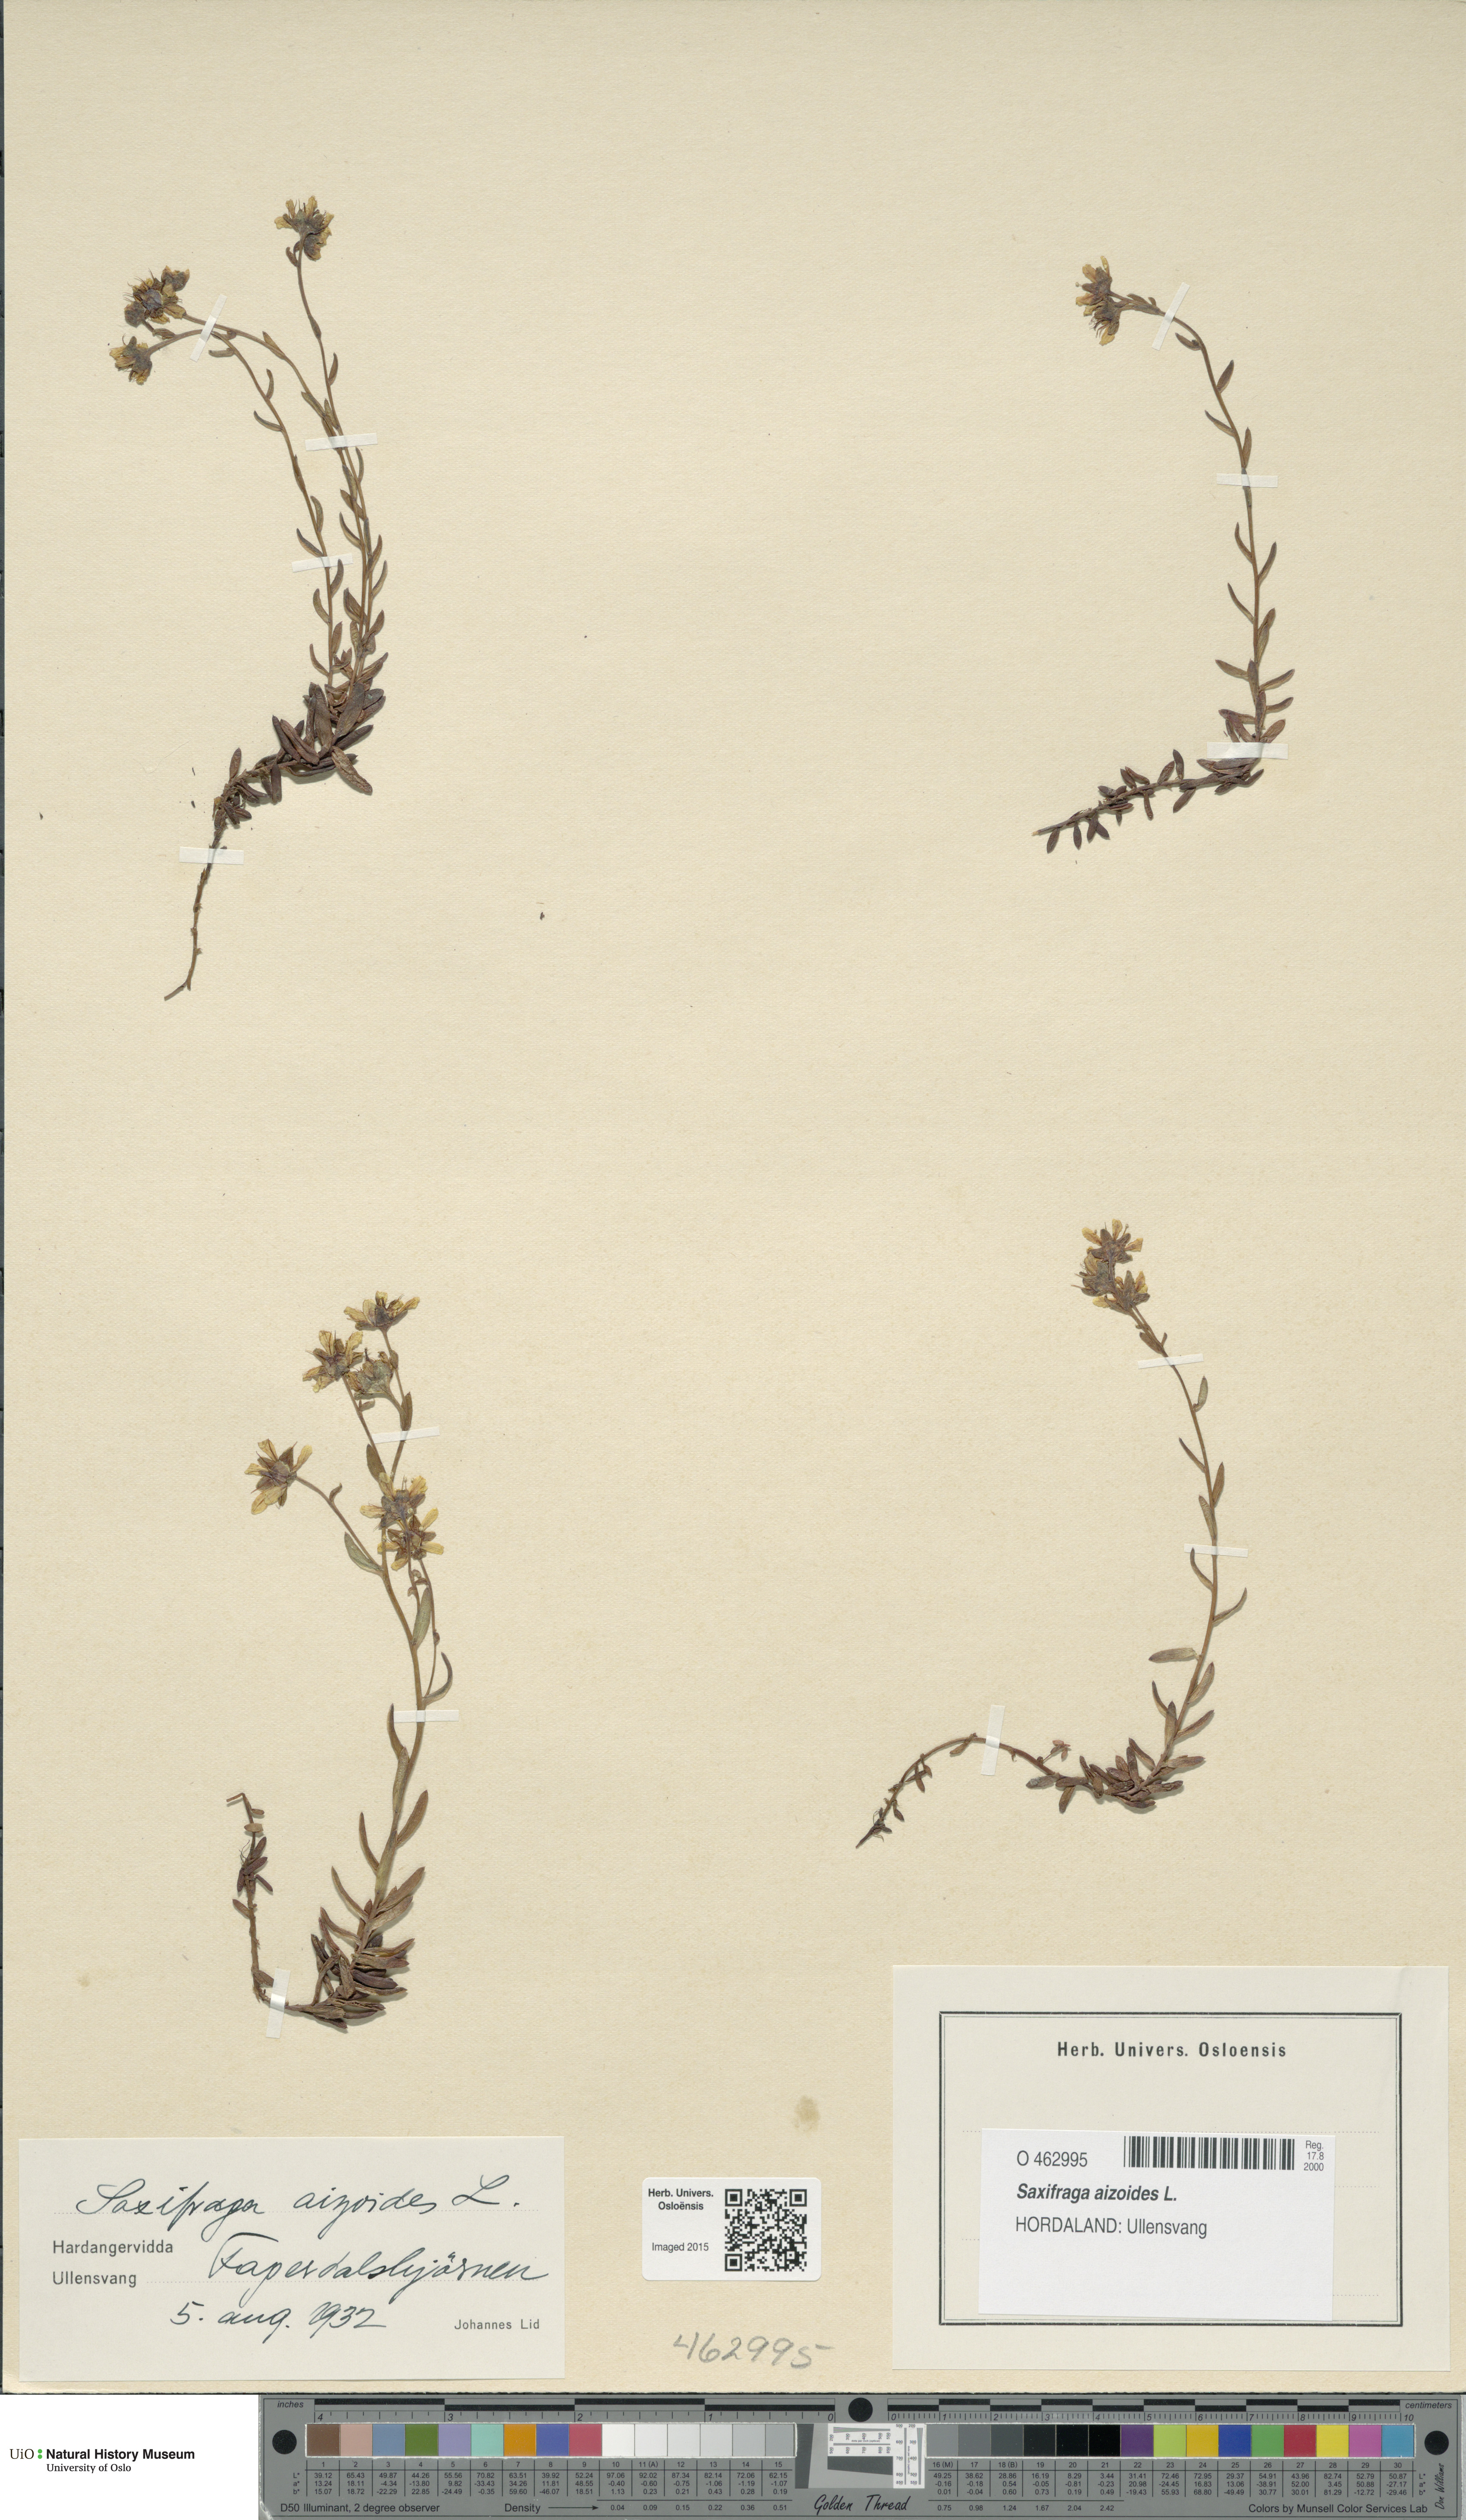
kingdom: Plantae
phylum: Tracheophyta
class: Magnoliopsida
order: Saxifragales
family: Saxifragaceae
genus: Saxifraga
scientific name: Saxifraga aizoides
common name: Yellow mountain saxifrage
